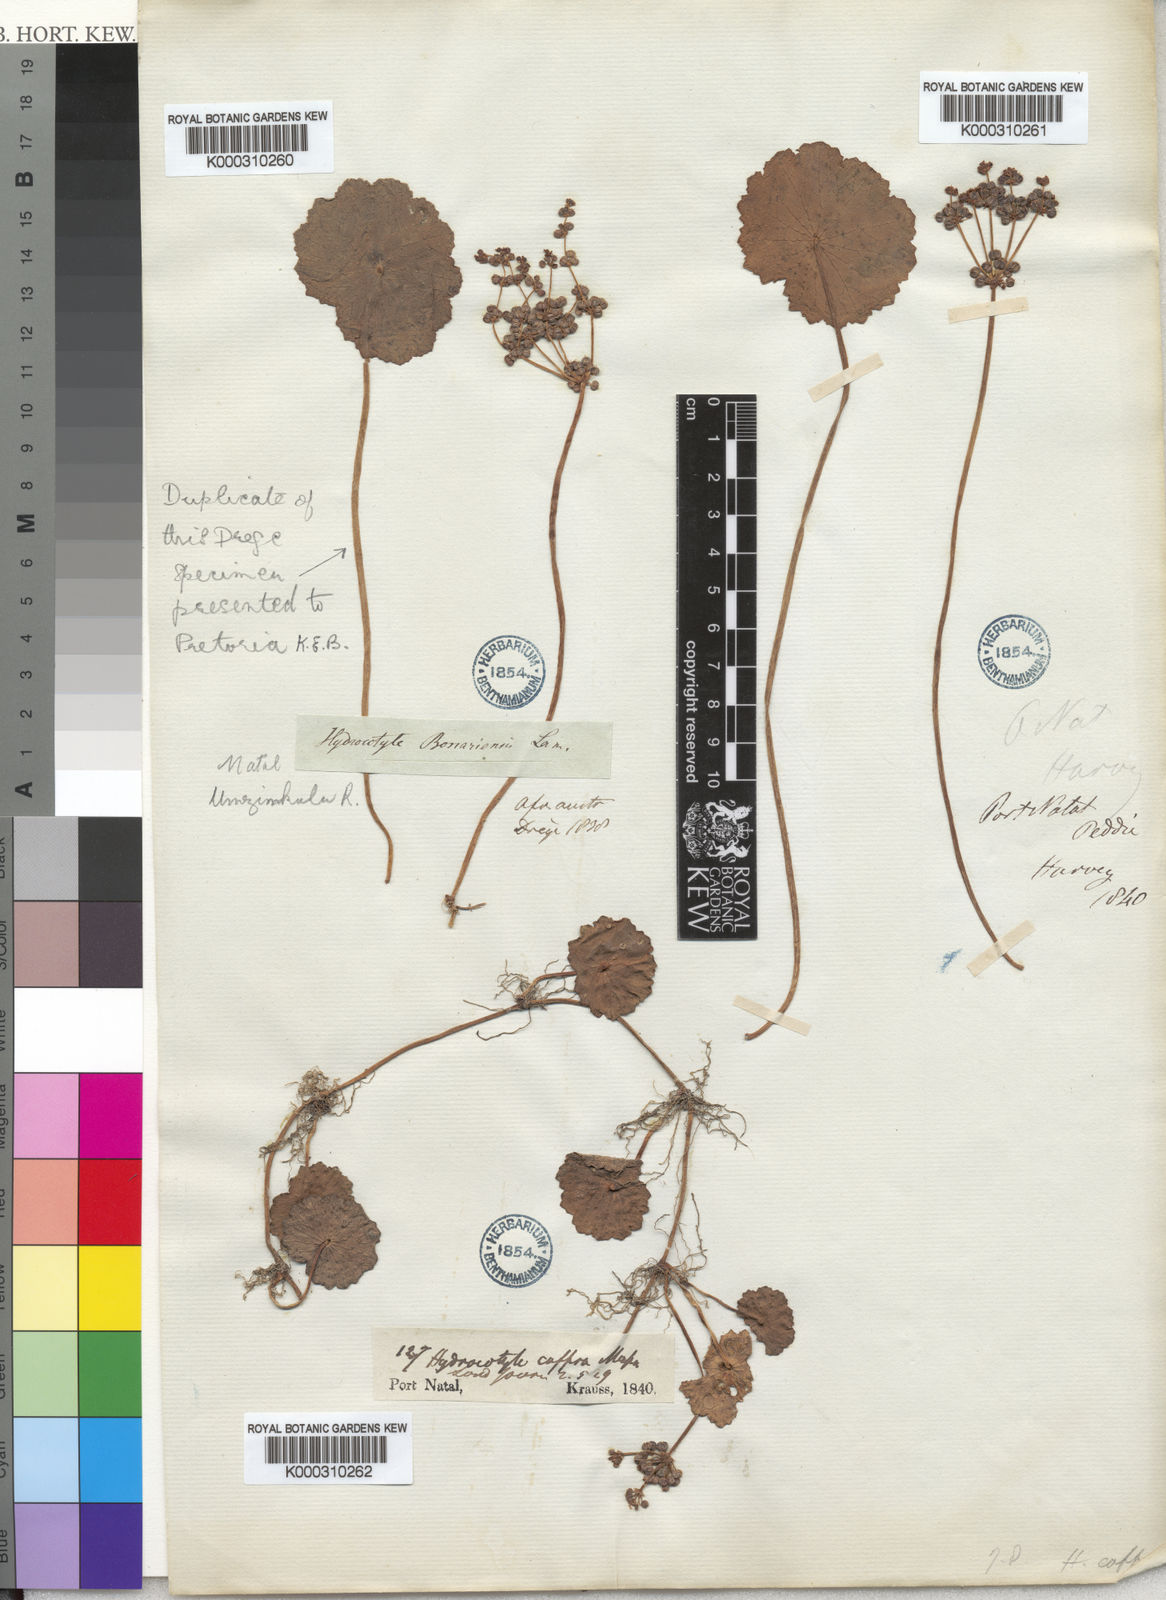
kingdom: Plantae
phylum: Tracheophyta
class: Magnoliopsida
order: Apiales
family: Araliaceae
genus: Hydrocotyle
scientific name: Hydrocotyle bonariensis
